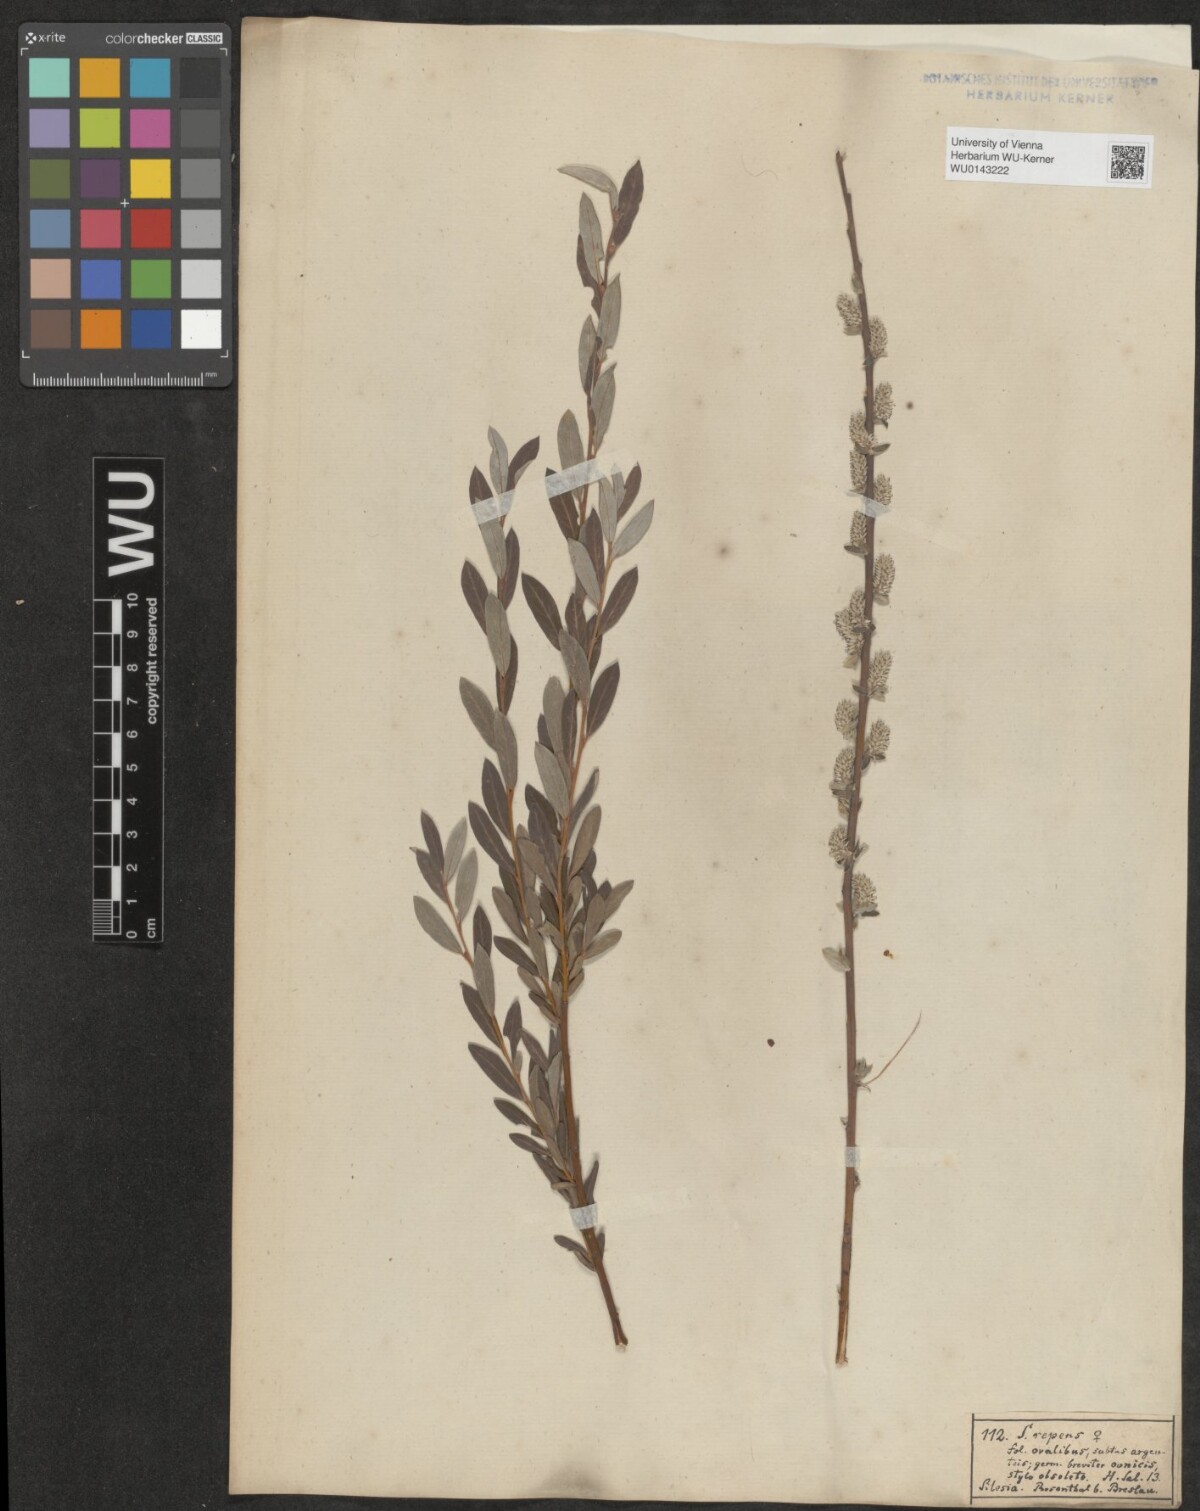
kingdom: Plantae
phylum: Tracheophyta
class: Magnoliopsida
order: Malpighiales
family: Salicaceae
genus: Salix
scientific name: Salix repens
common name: Creeping willow
